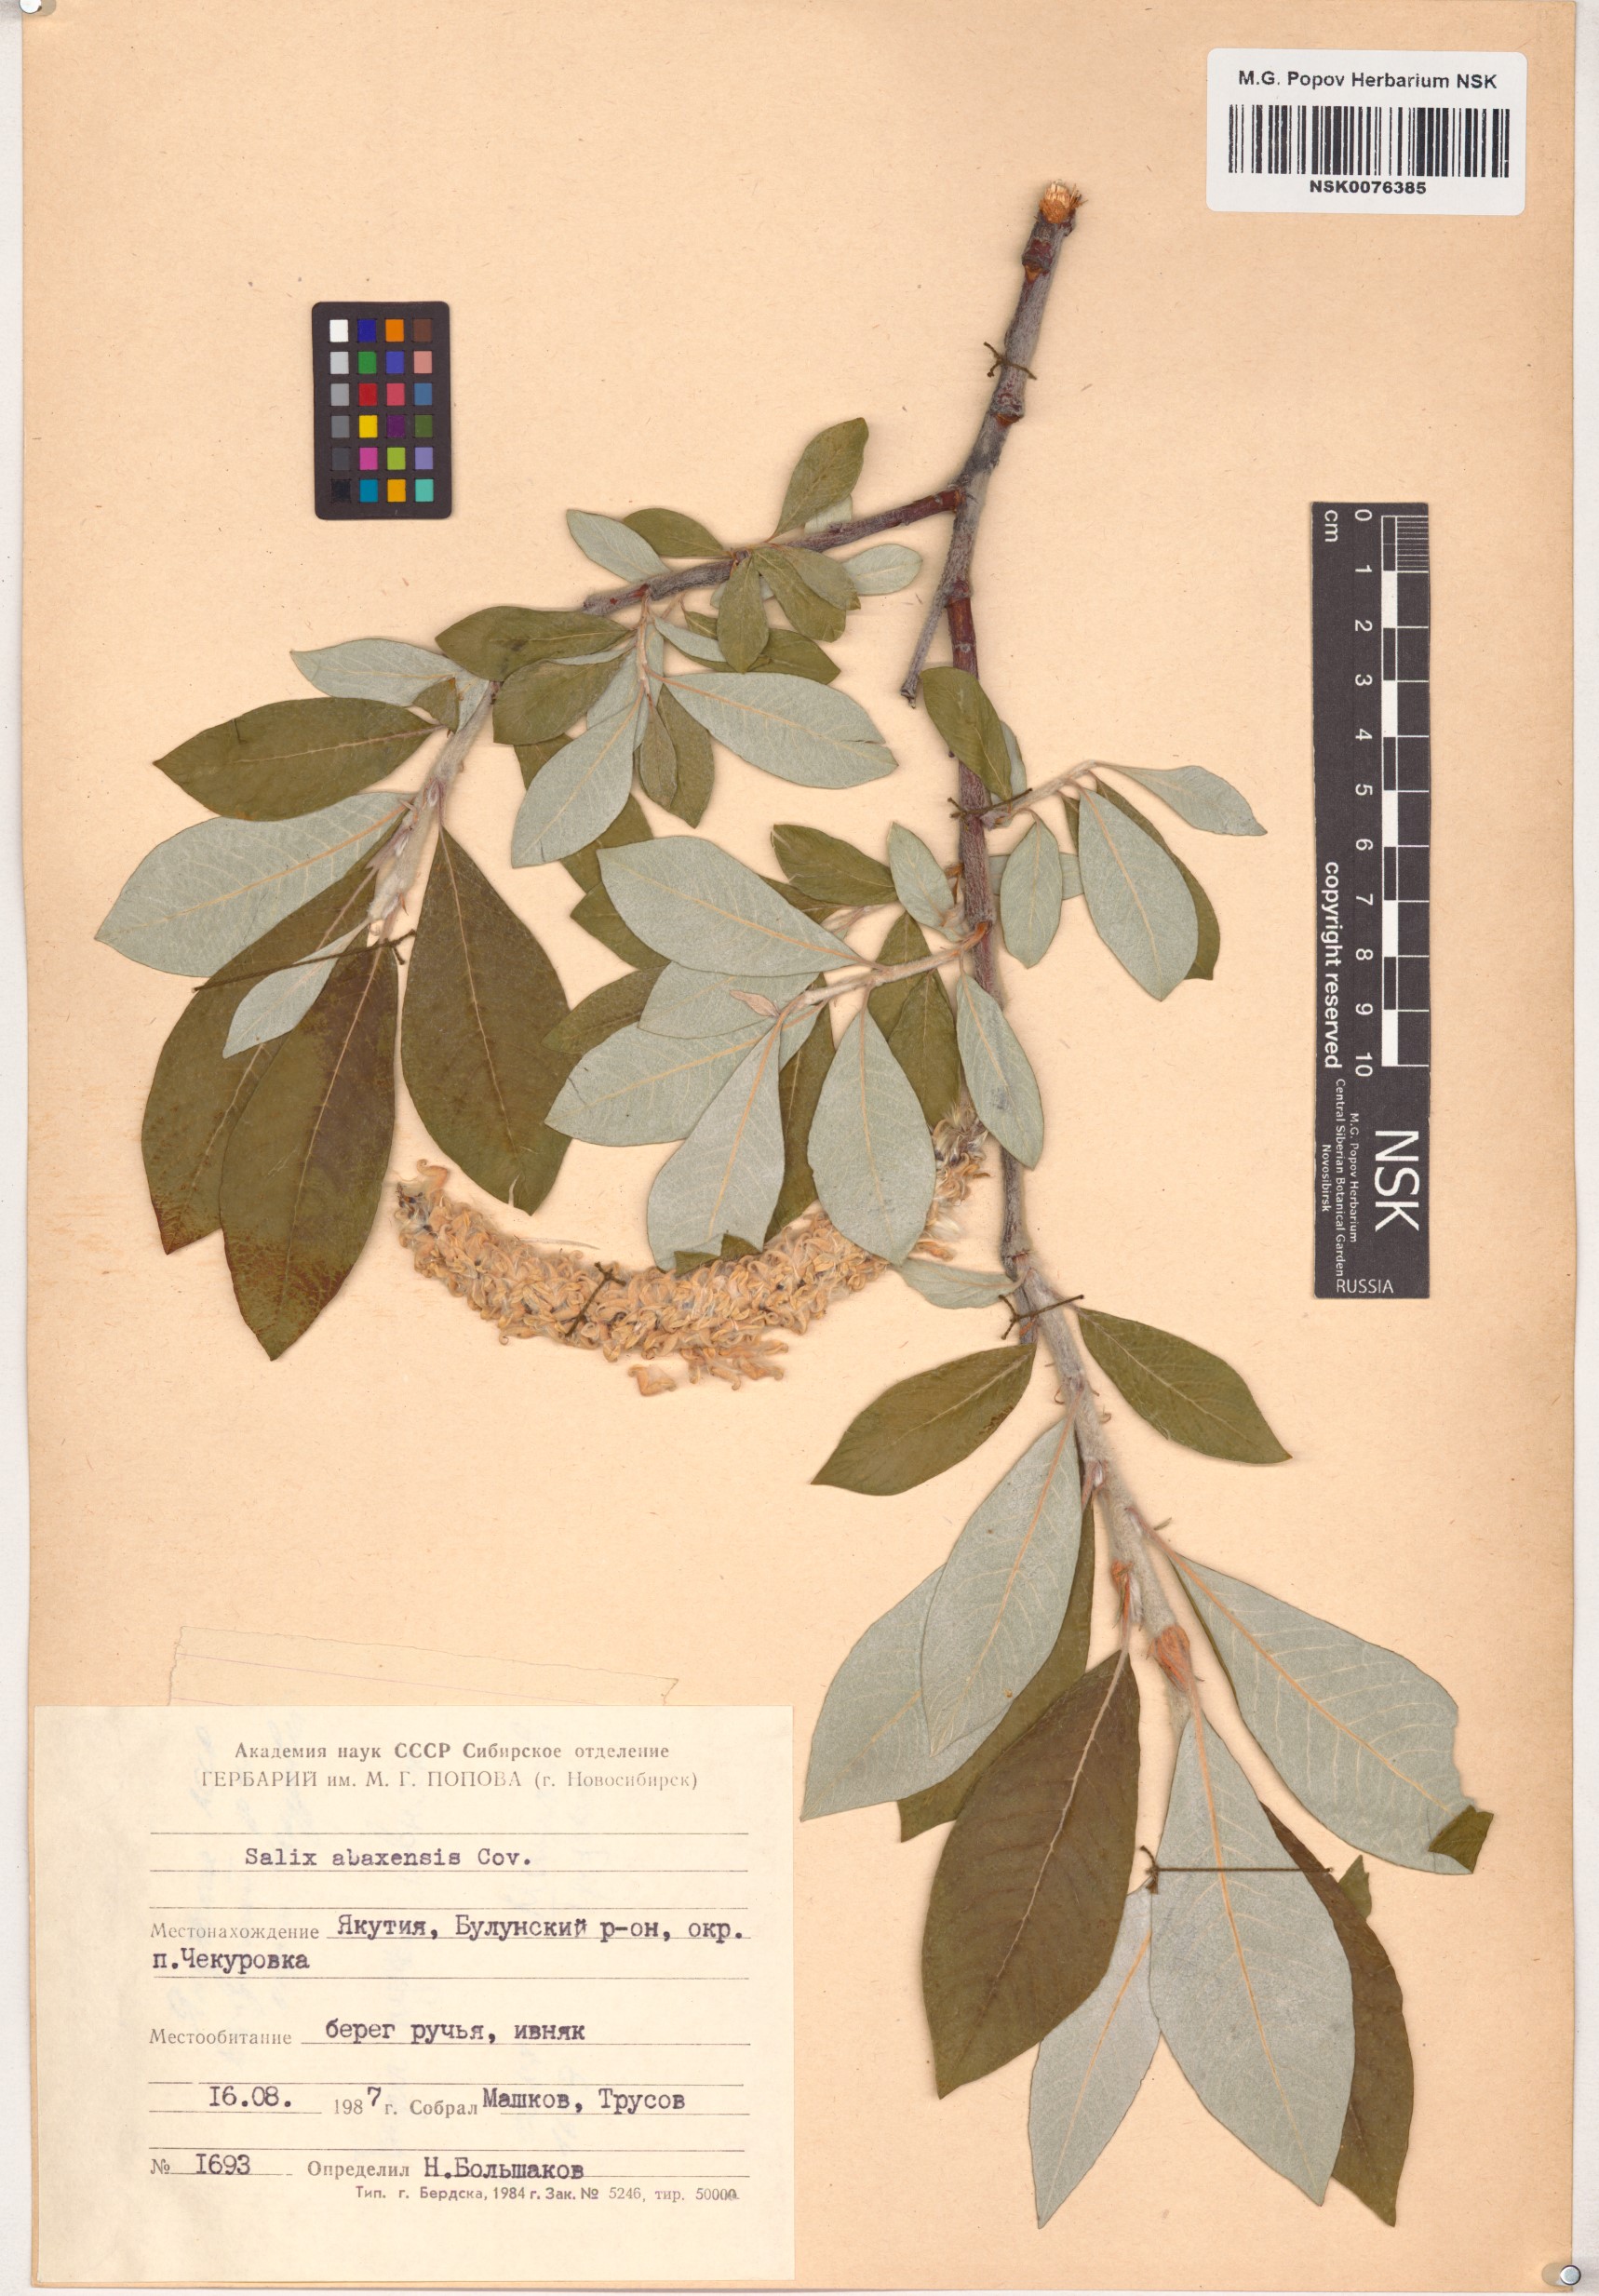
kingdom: Plantae
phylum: Tracheophyta
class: Magnoliopsida
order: Malpighiales
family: Salicaceae
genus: Salix
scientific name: Salix alaxensis
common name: Feltleaf willow
